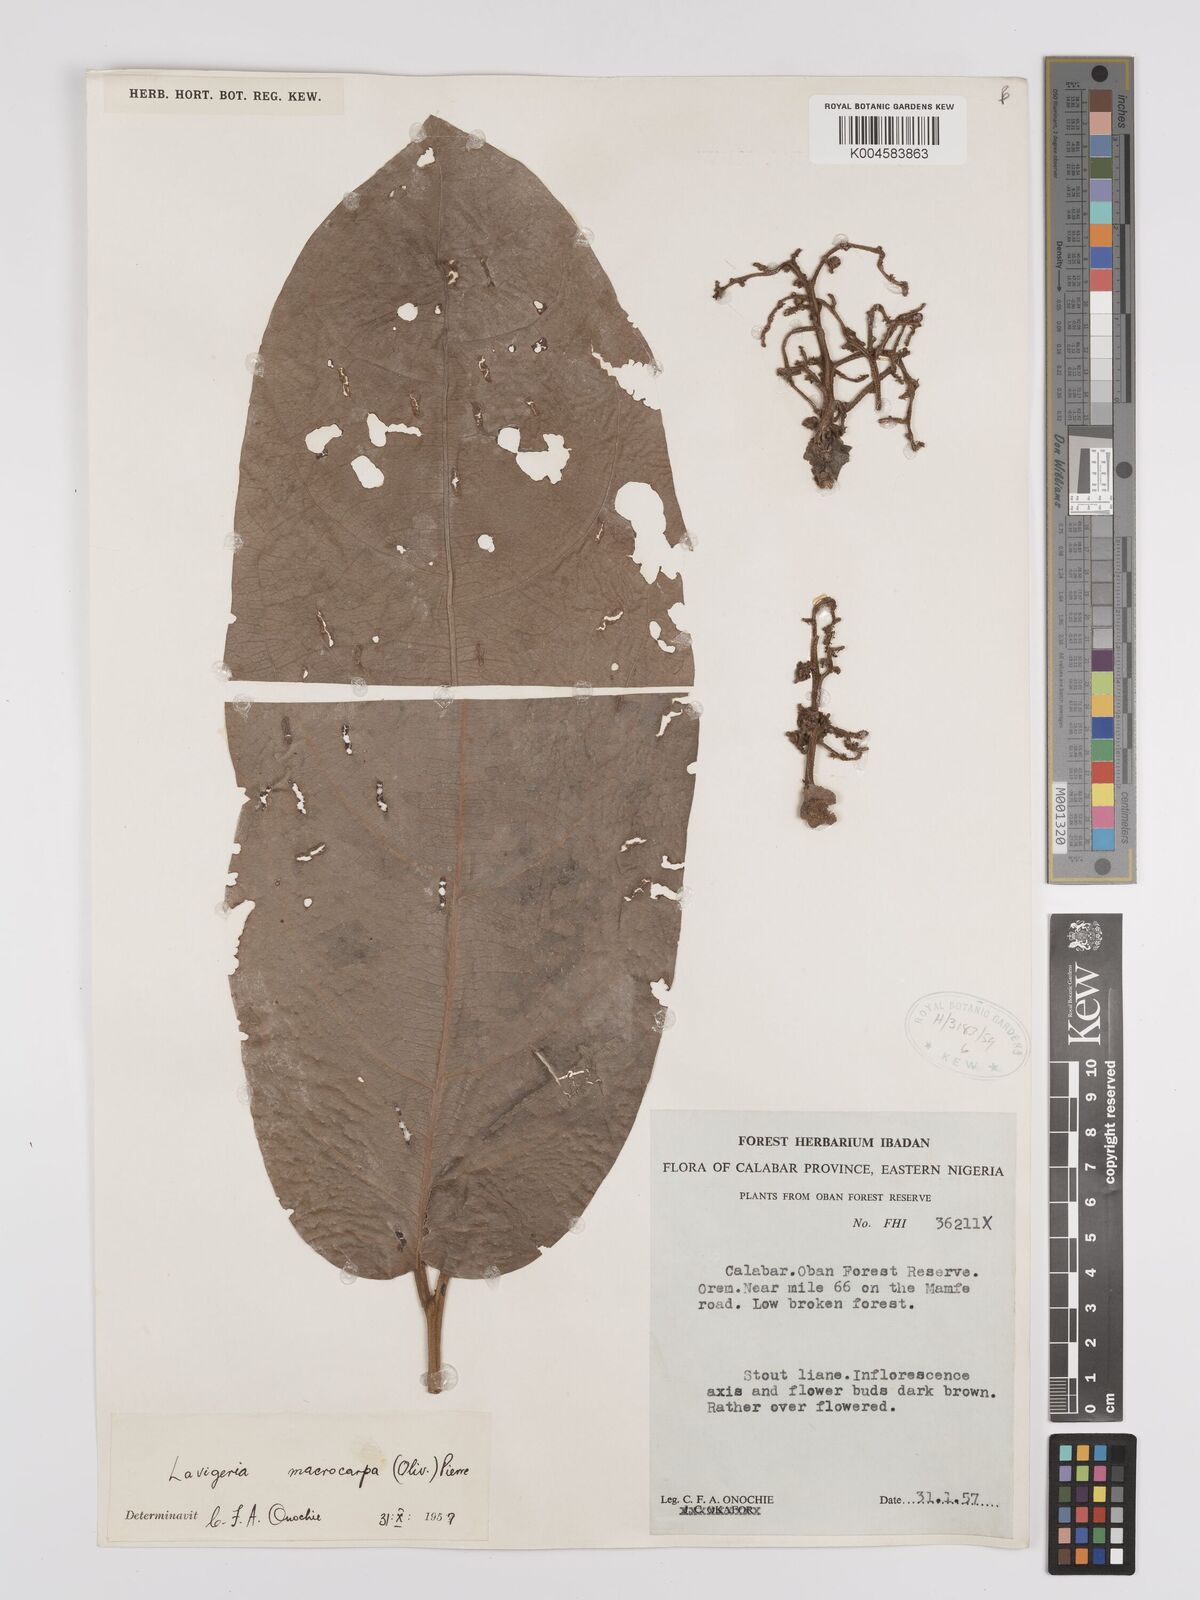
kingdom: Plantae
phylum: Tracheophyta
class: Magnoliopsida
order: Icacinales
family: Icacinaceae
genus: Lavigeria
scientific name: Lavigeria macrocarpa
